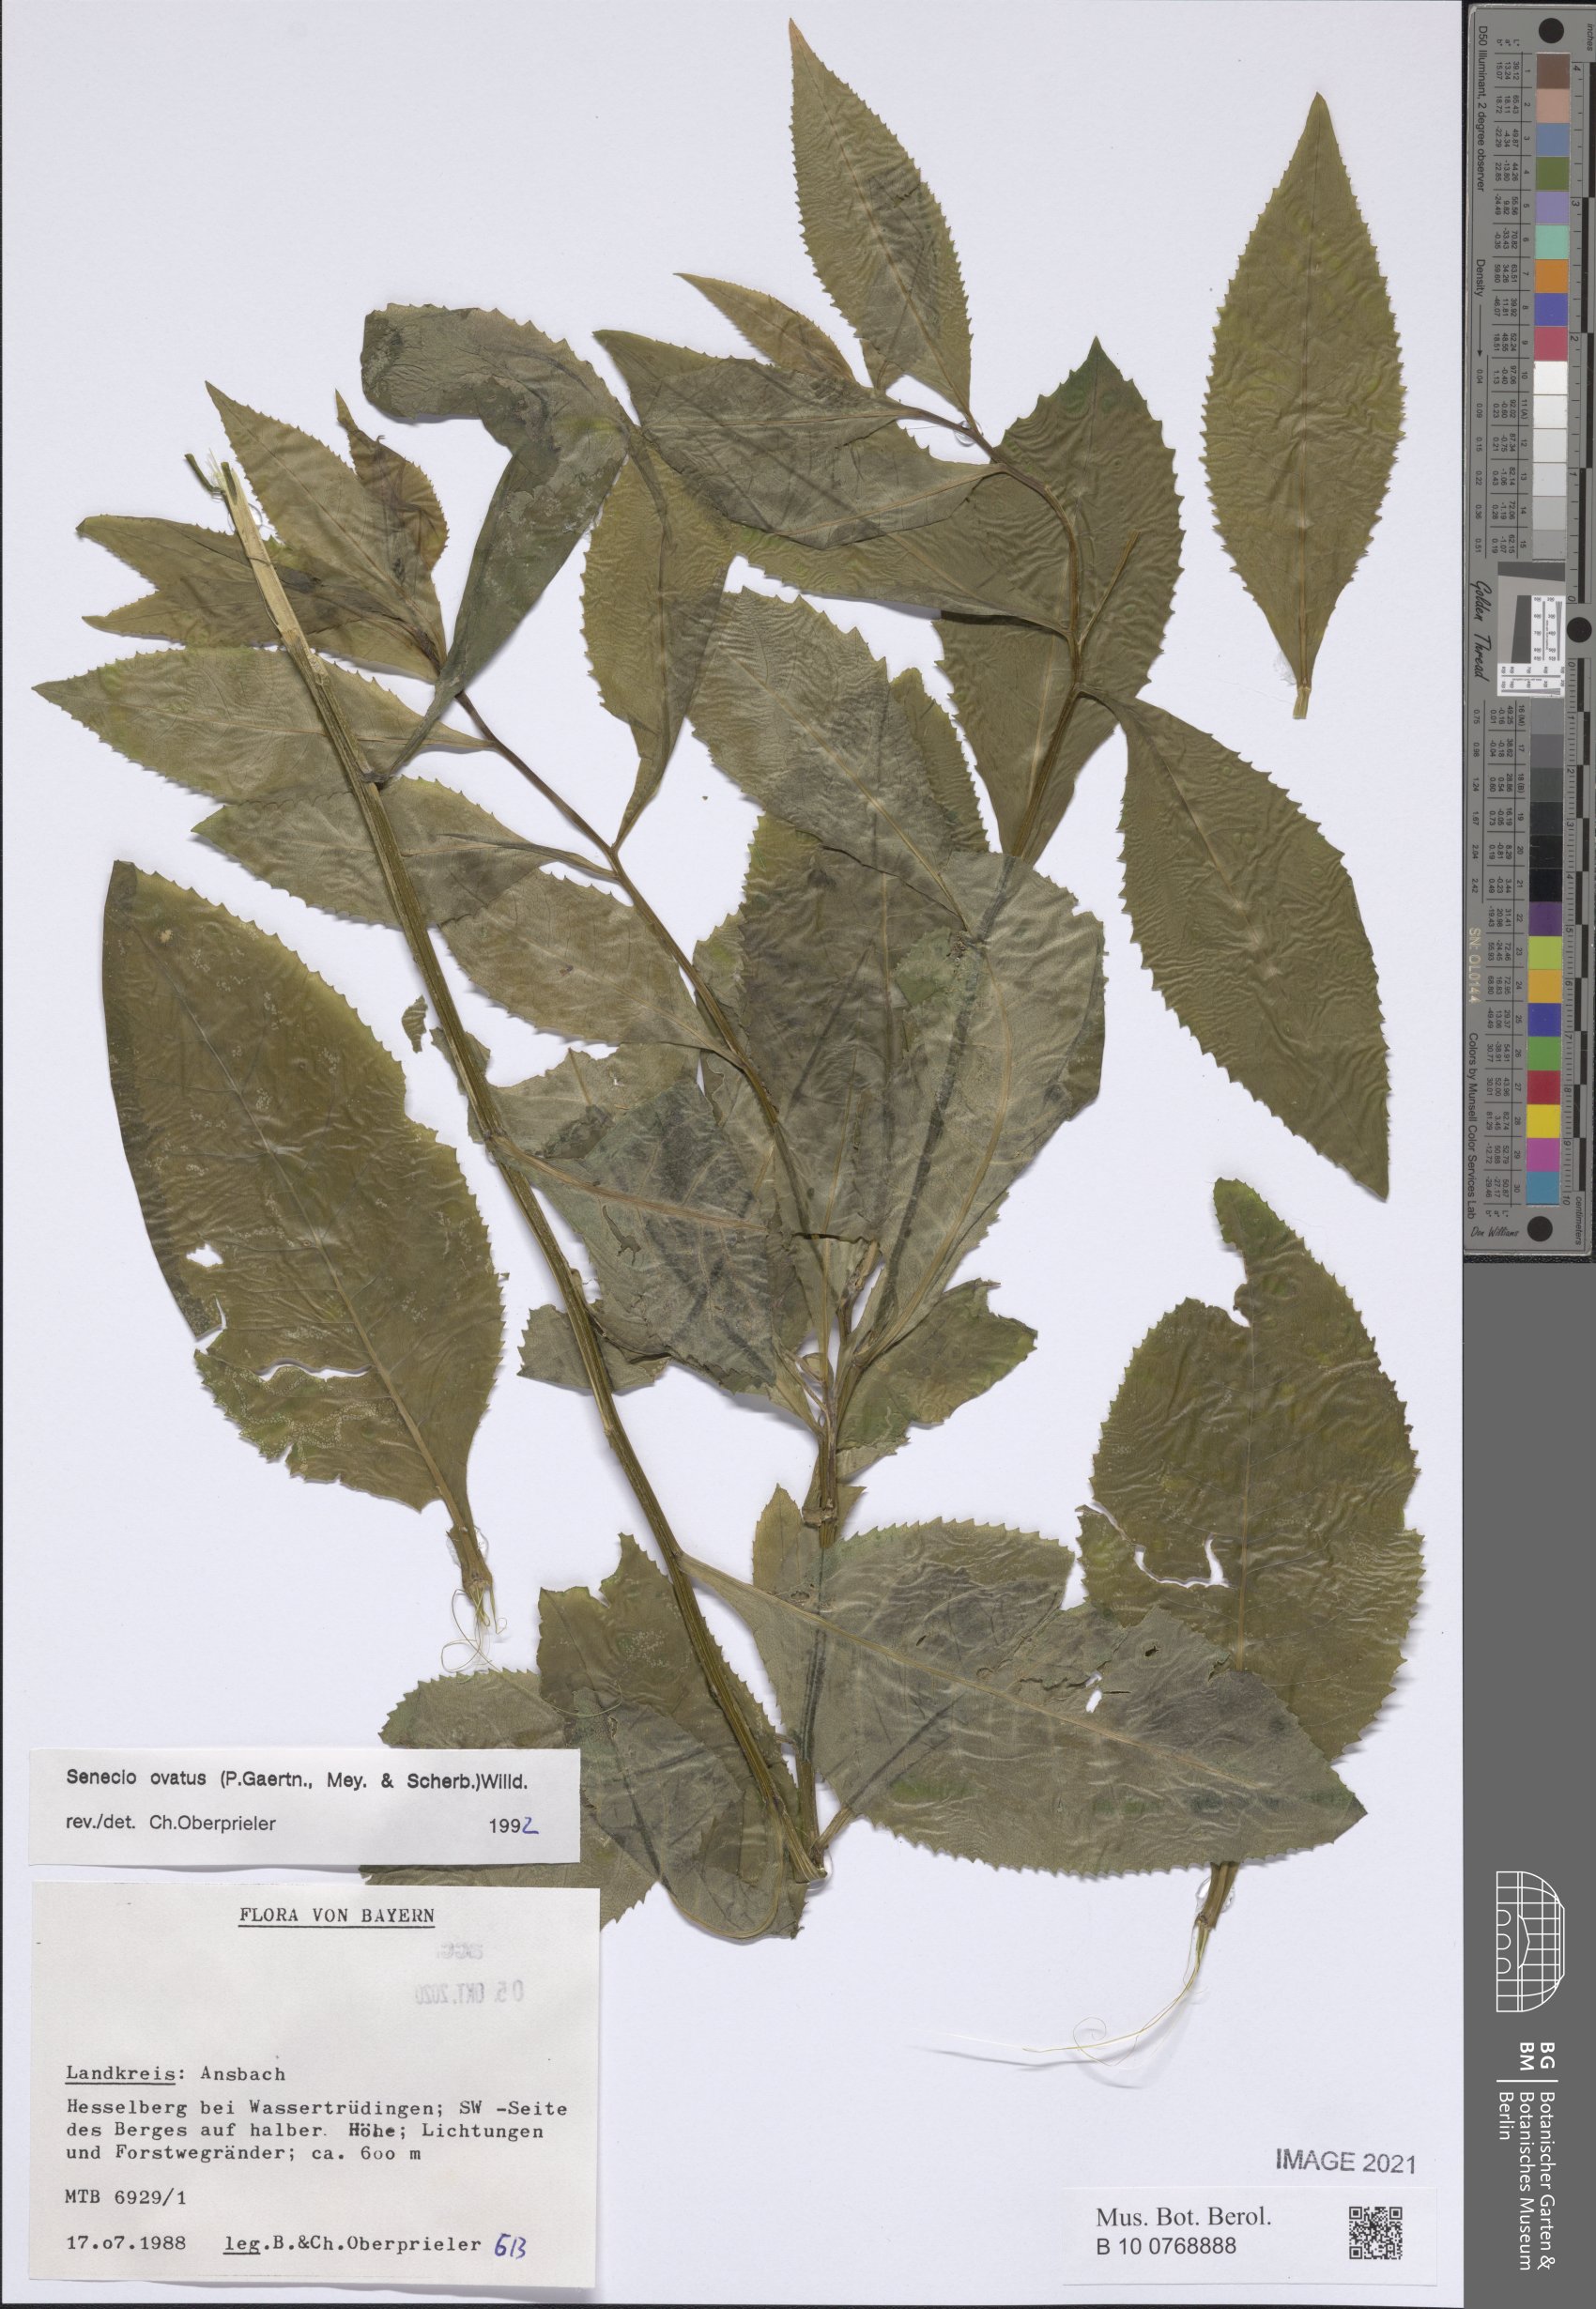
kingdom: Plantae
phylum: Tracheophyta
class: Magnoliopsida
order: Asterales
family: Asteraceae
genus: Senecio
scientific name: Senecio ovatus
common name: Wood ragwort
